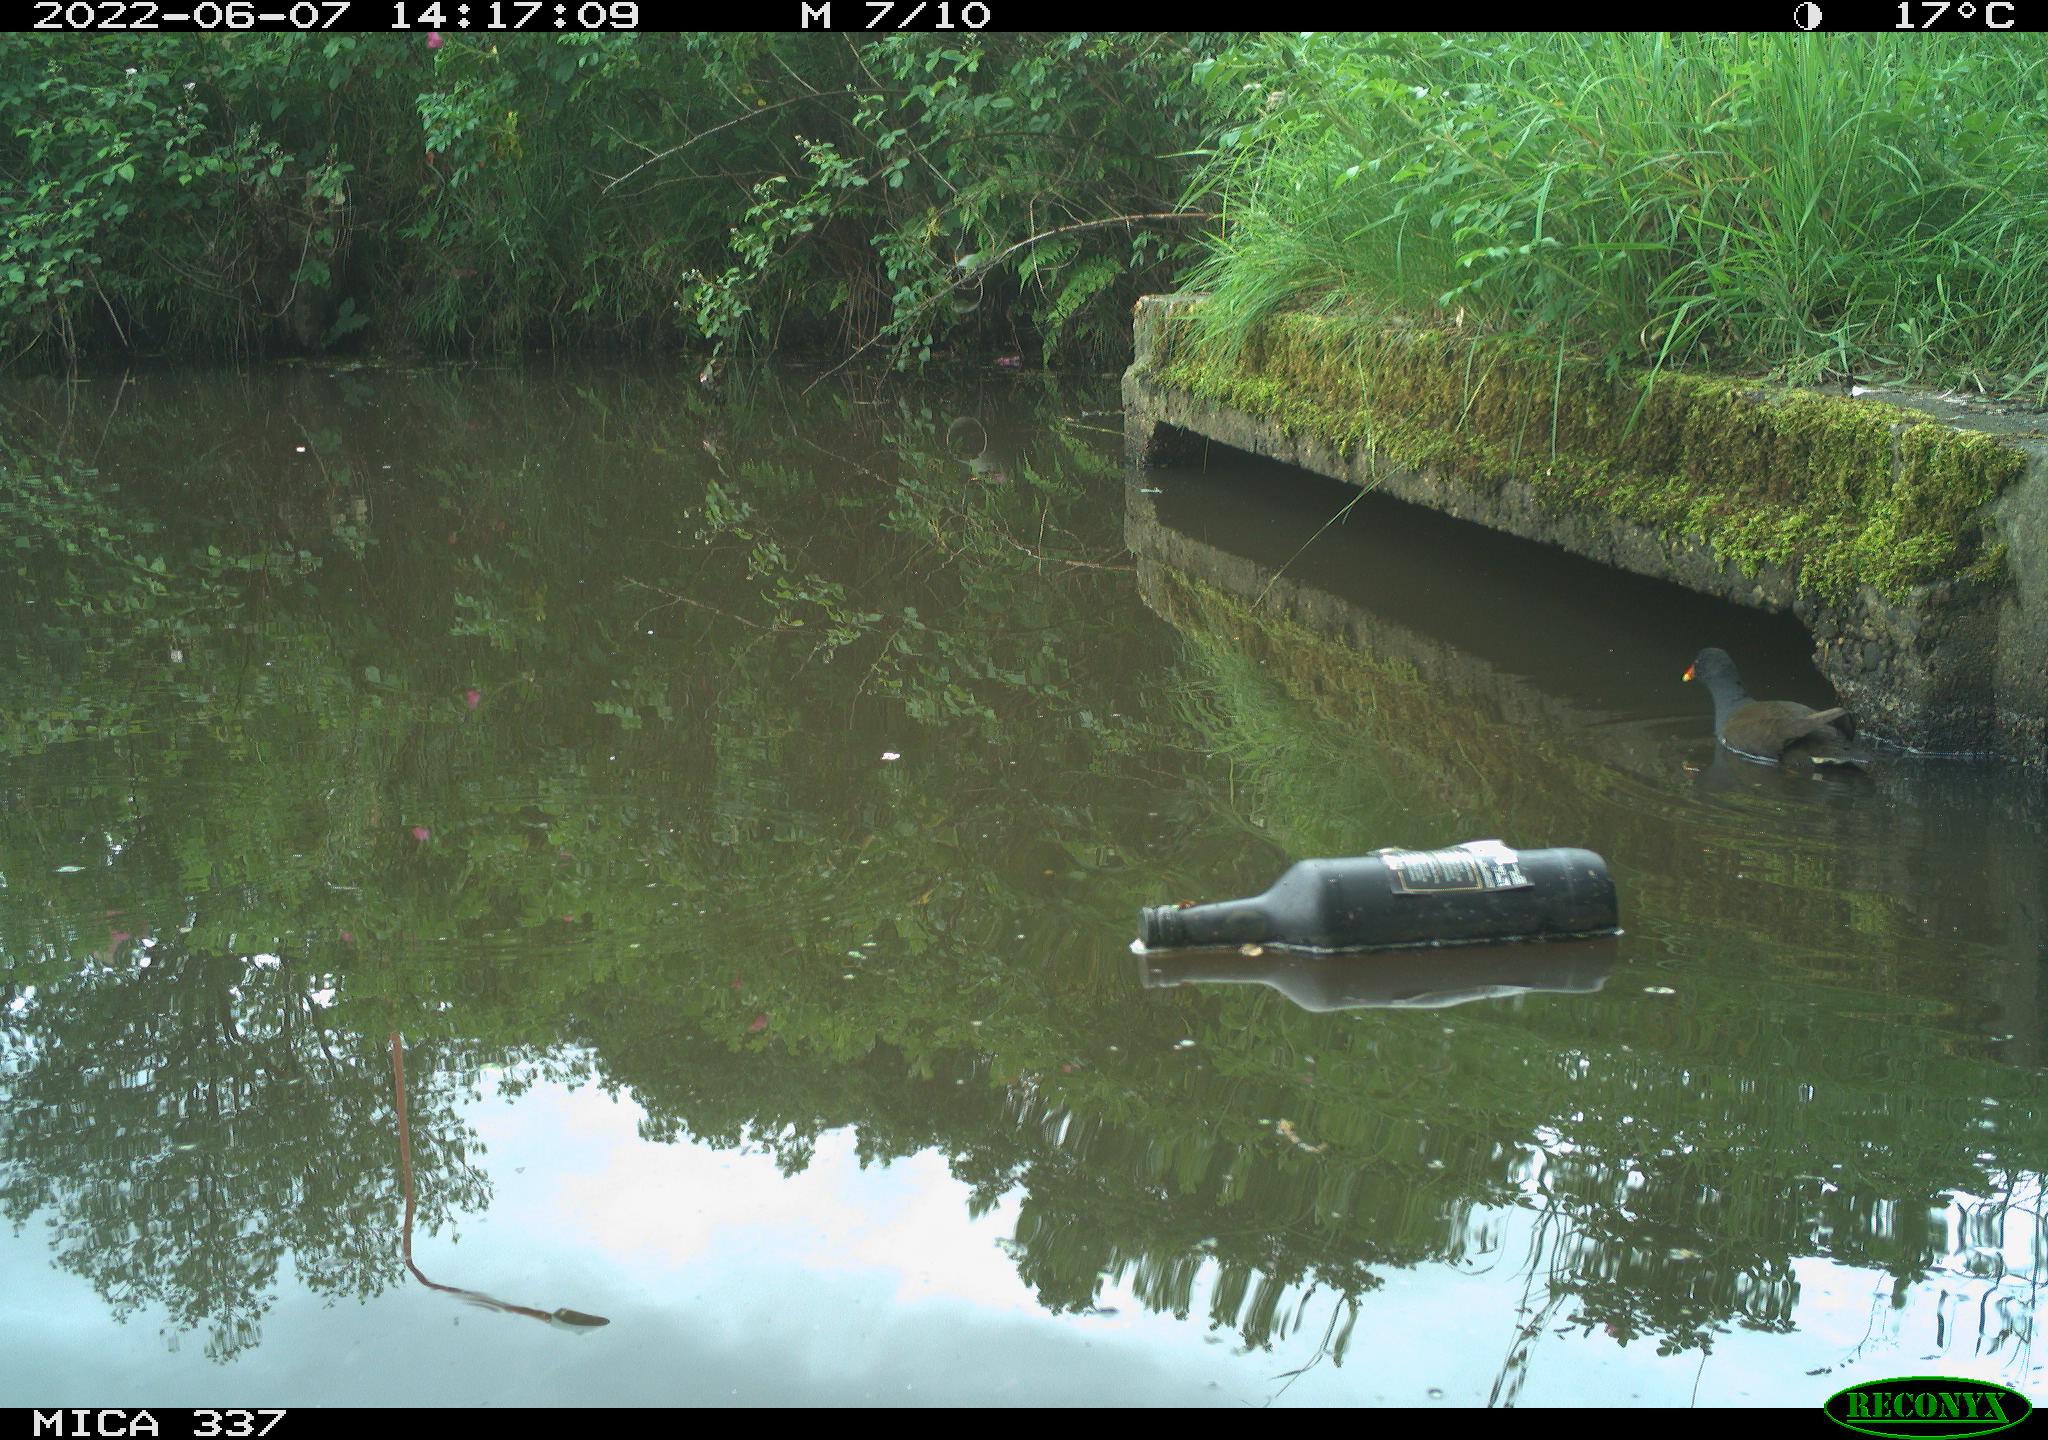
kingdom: Animalia
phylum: Chordata
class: Aves
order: Gruiformes
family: Rallidae
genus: Gallinula
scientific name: Gallinula chloropus
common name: Common moorhen
